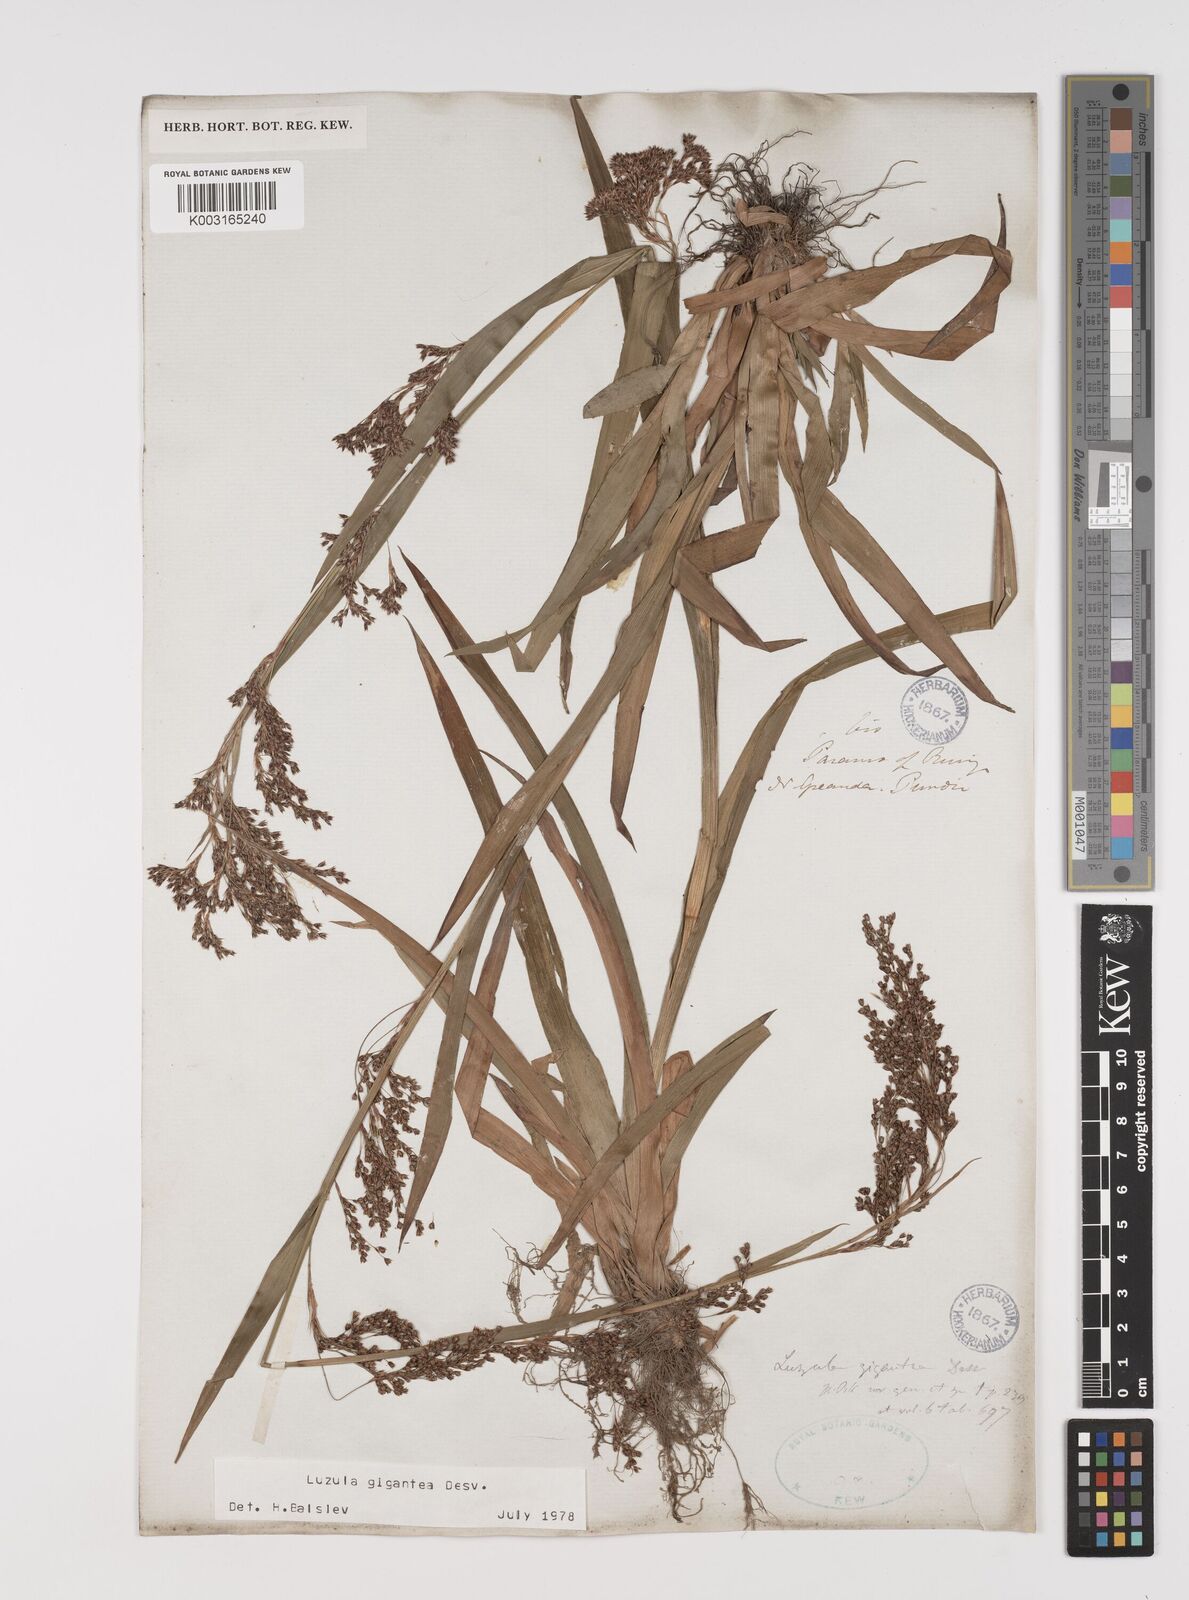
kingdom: Plantae
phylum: Tracheophyta
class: Liliopsida
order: Poales
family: Juncaceae
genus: Luzula
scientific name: Luzula gigantea
